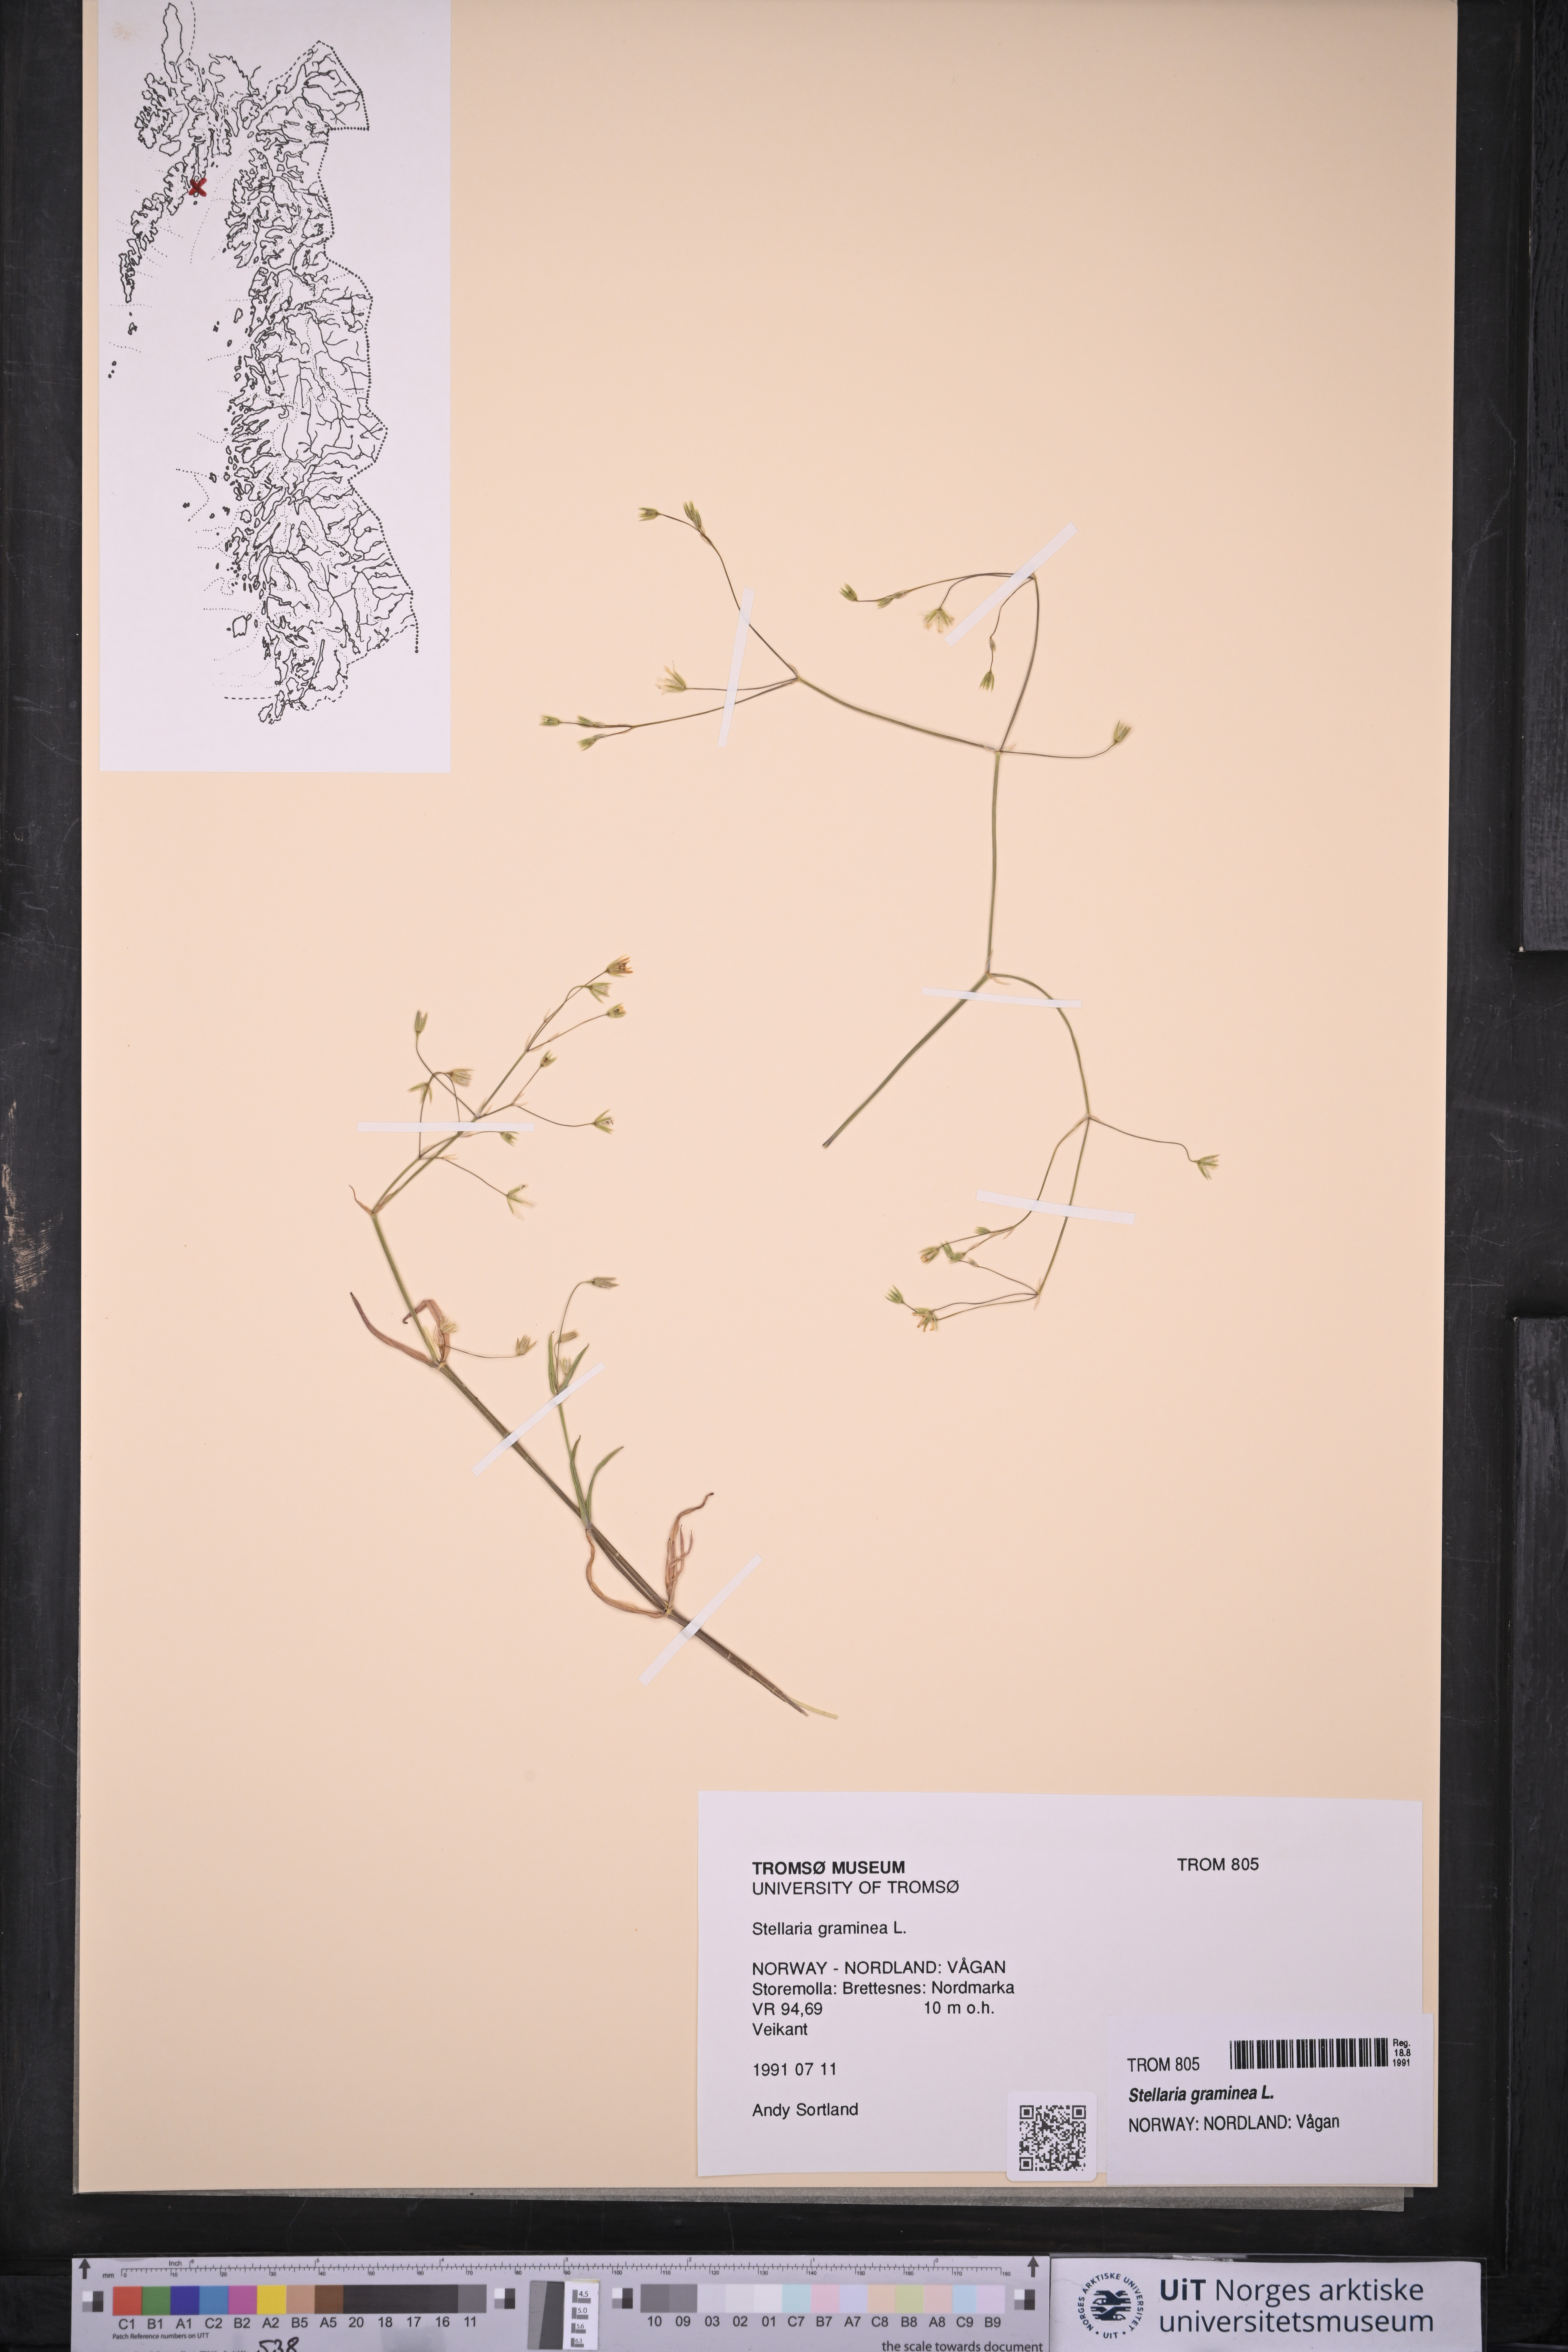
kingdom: Plantae
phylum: Tracheophyta
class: Magnoliopsida
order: Caryophyllales
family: Caryophyllaceae
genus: Stellaria
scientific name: Stellaria graminea
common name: Grass-like starwort
